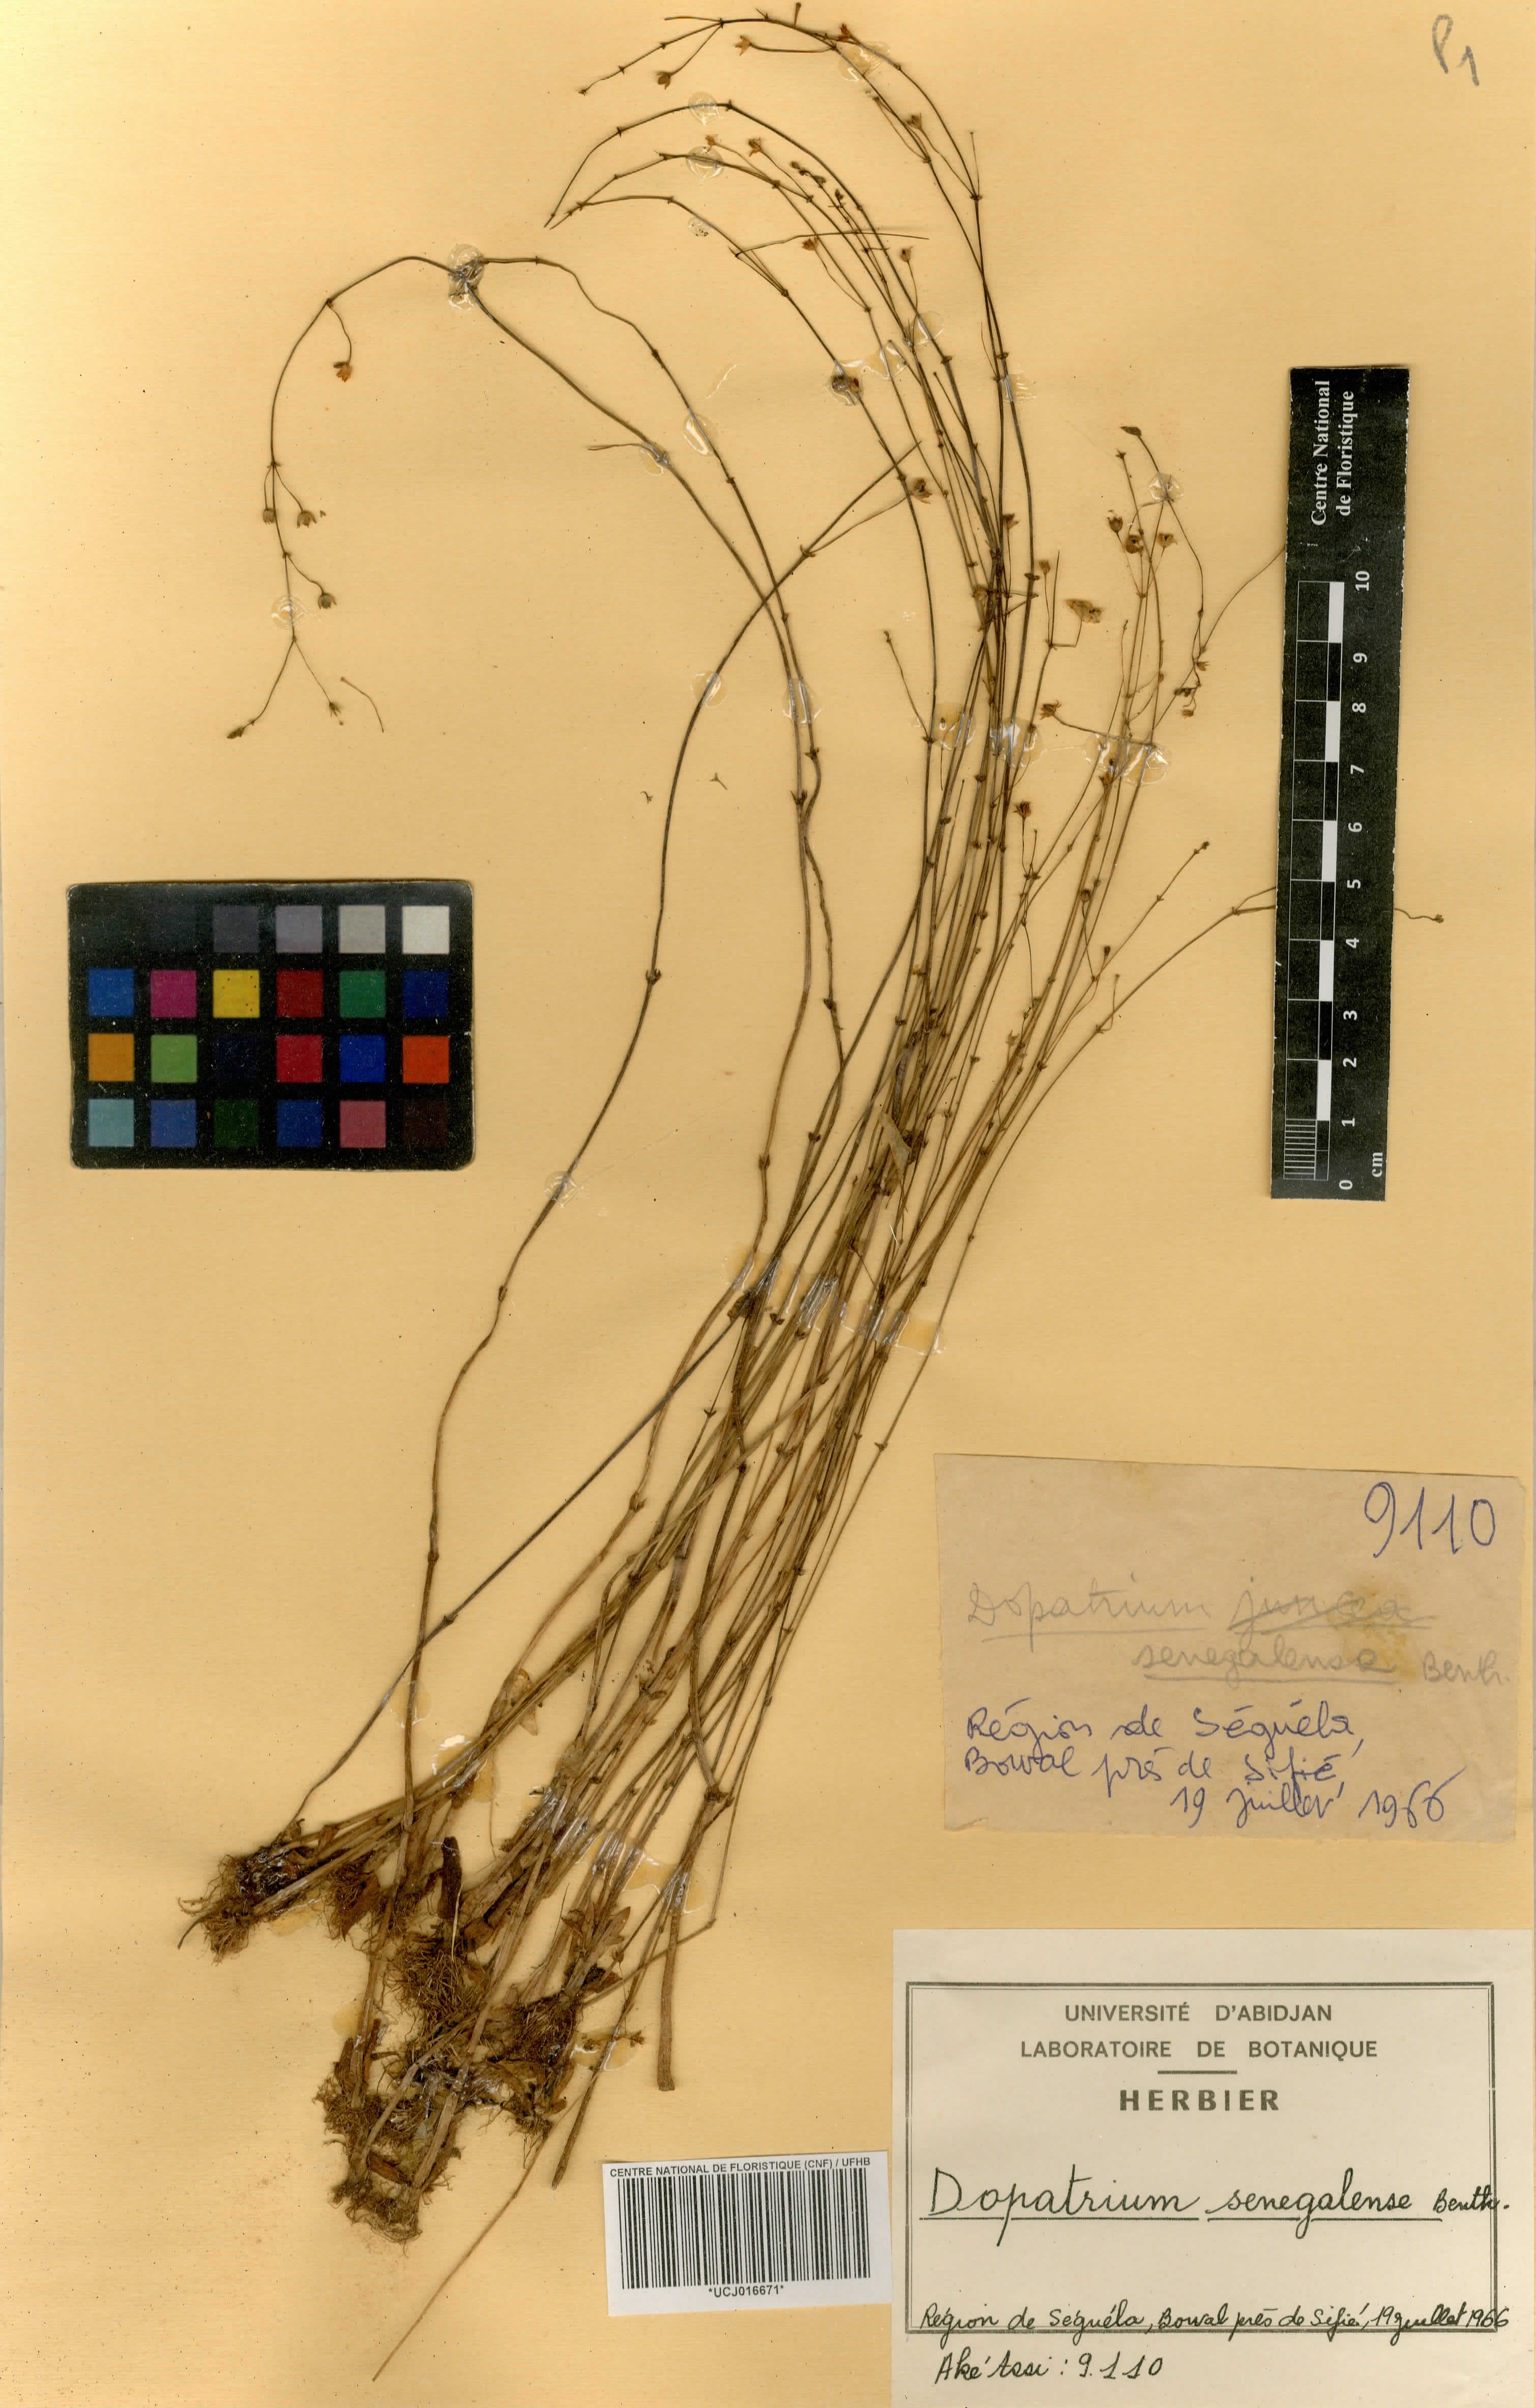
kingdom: Plantae
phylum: Tracheophyta
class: Magnoliopsida
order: Lamiales
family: Plantaginaceae
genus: Dopatrium
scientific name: Dopatrium senegalense
